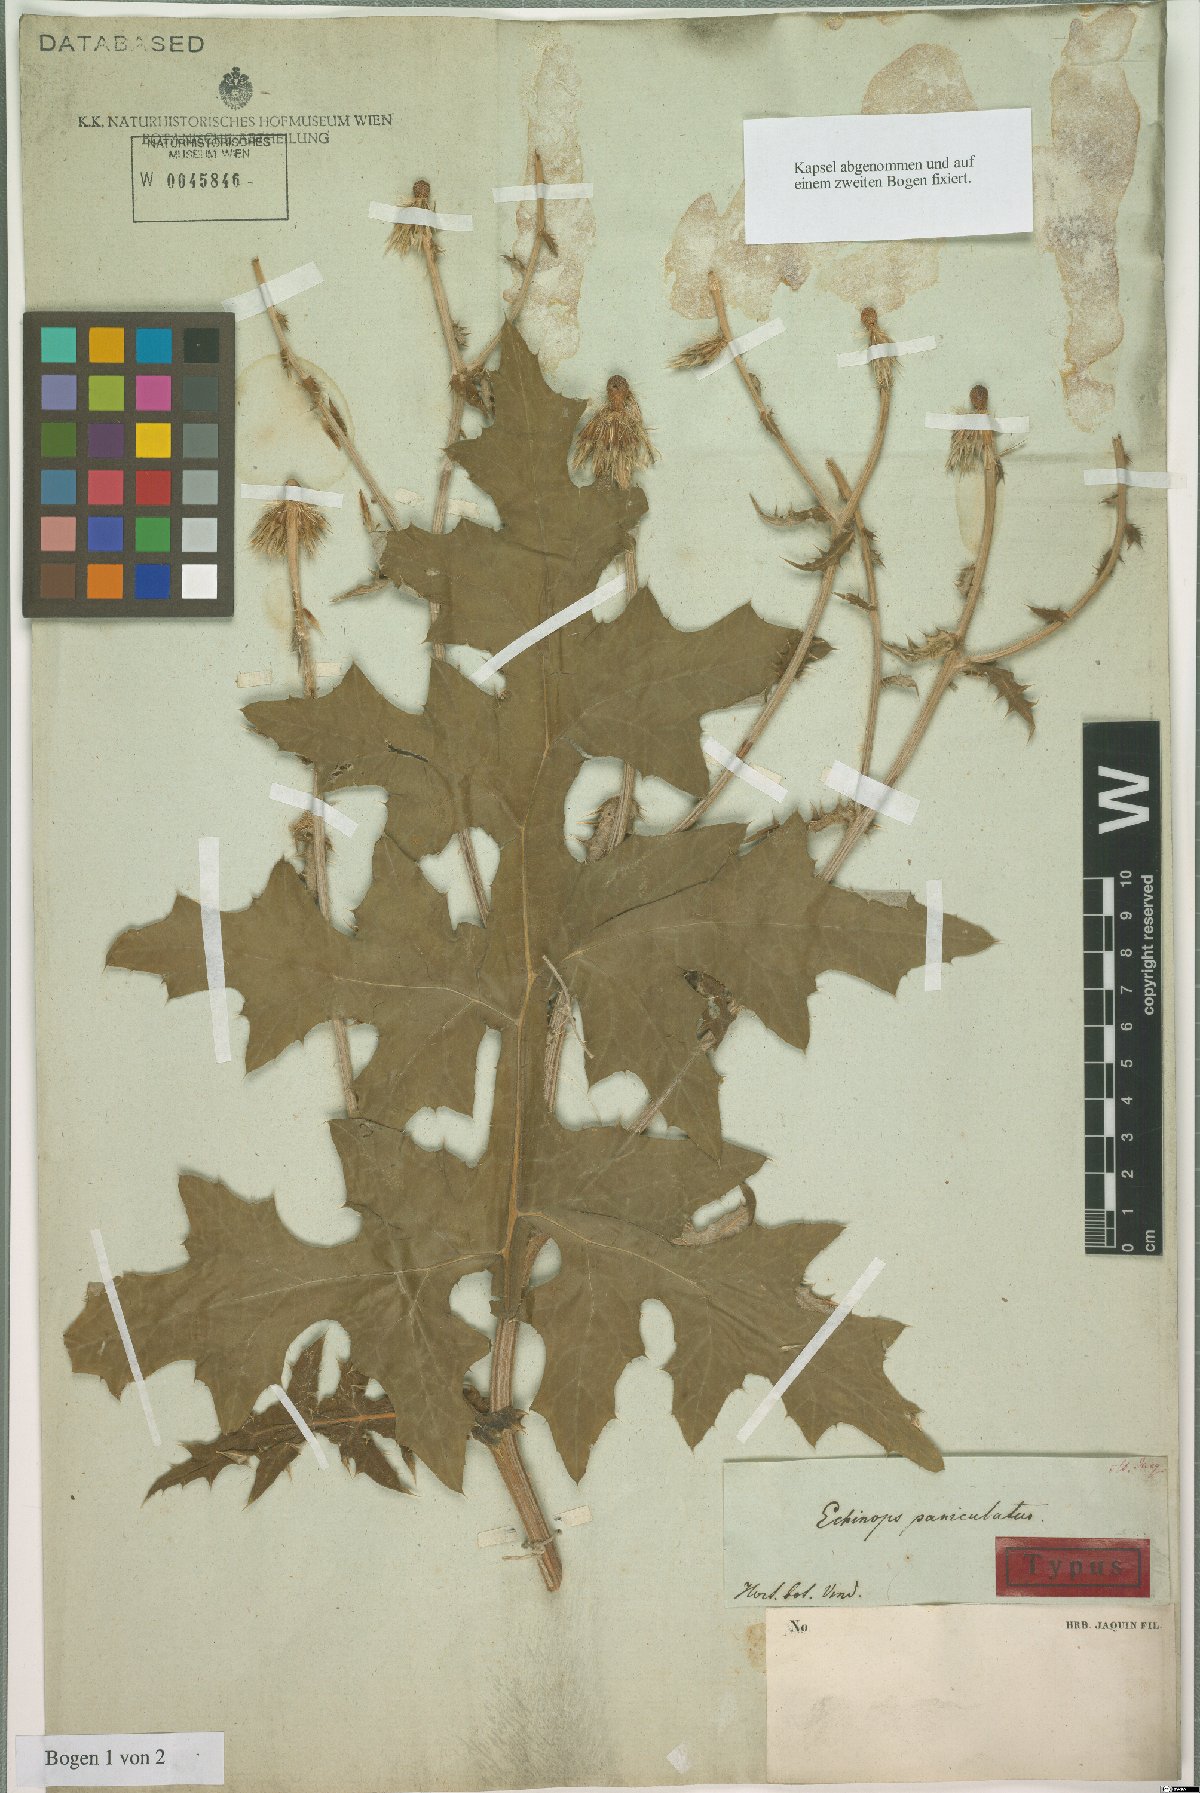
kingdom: Plantae
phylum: Tracheophyta
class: Magnoliopsida
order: Asterales
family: Asteraceae
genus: Echinops
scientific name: Echinops sphaerocephalus
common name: Glandular globe-thistle
